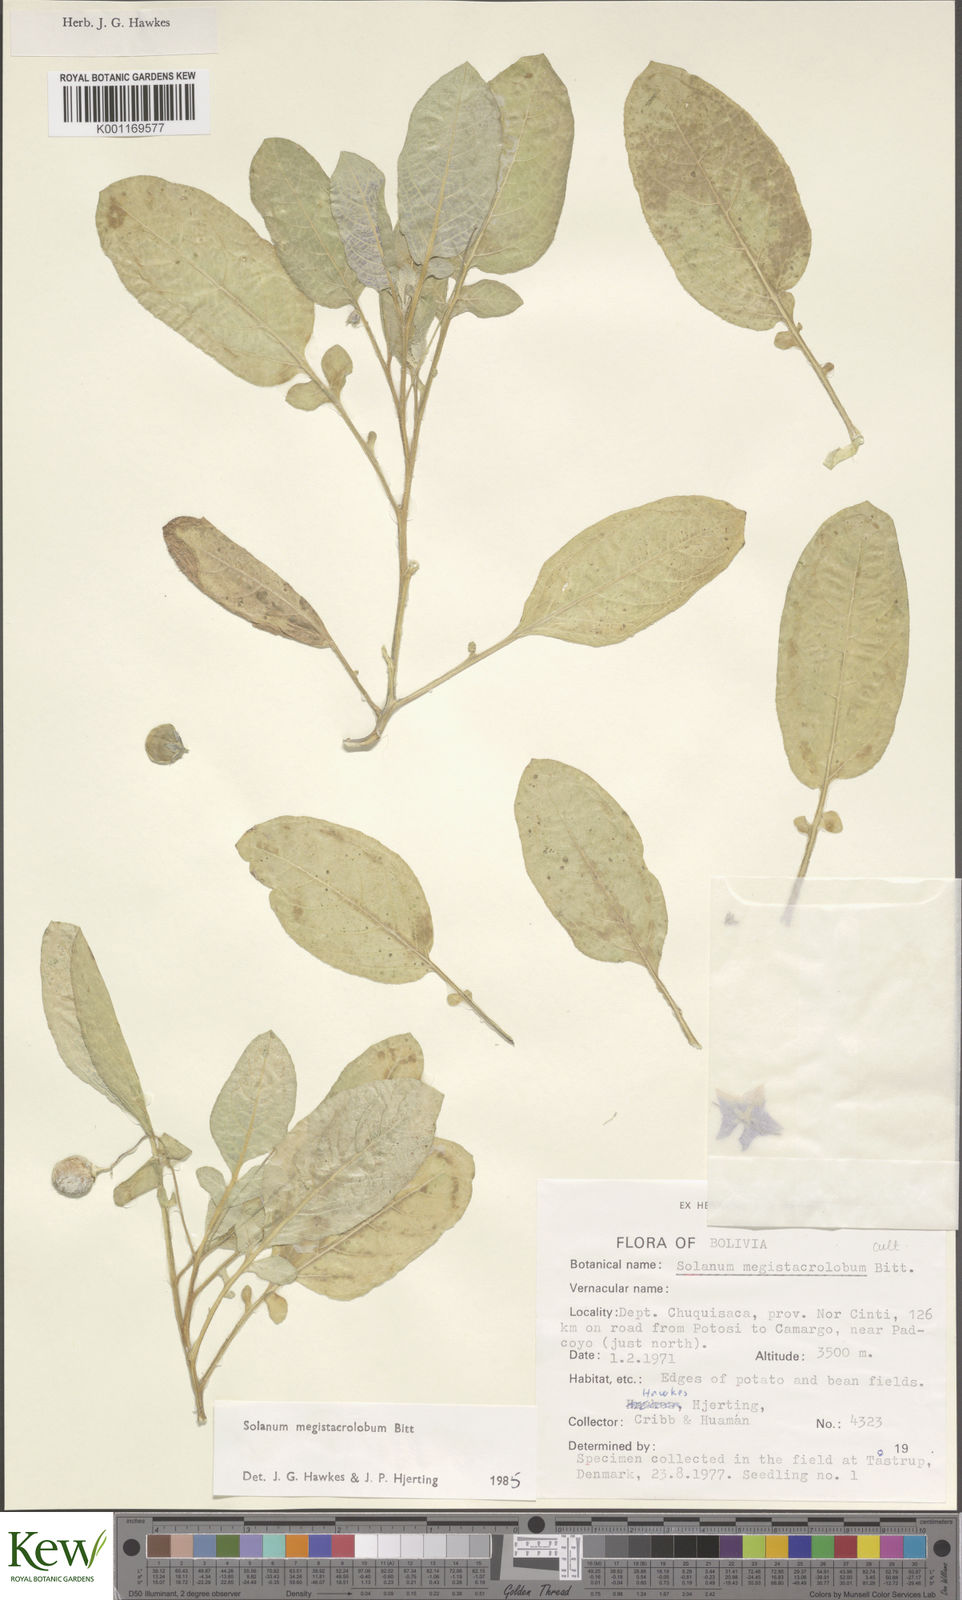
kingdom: Plantae
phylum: Tracheophyta
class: Magnoliopsida
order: Solanales
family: Solanaceae
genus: Solanum
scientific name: Solanum boliviense
